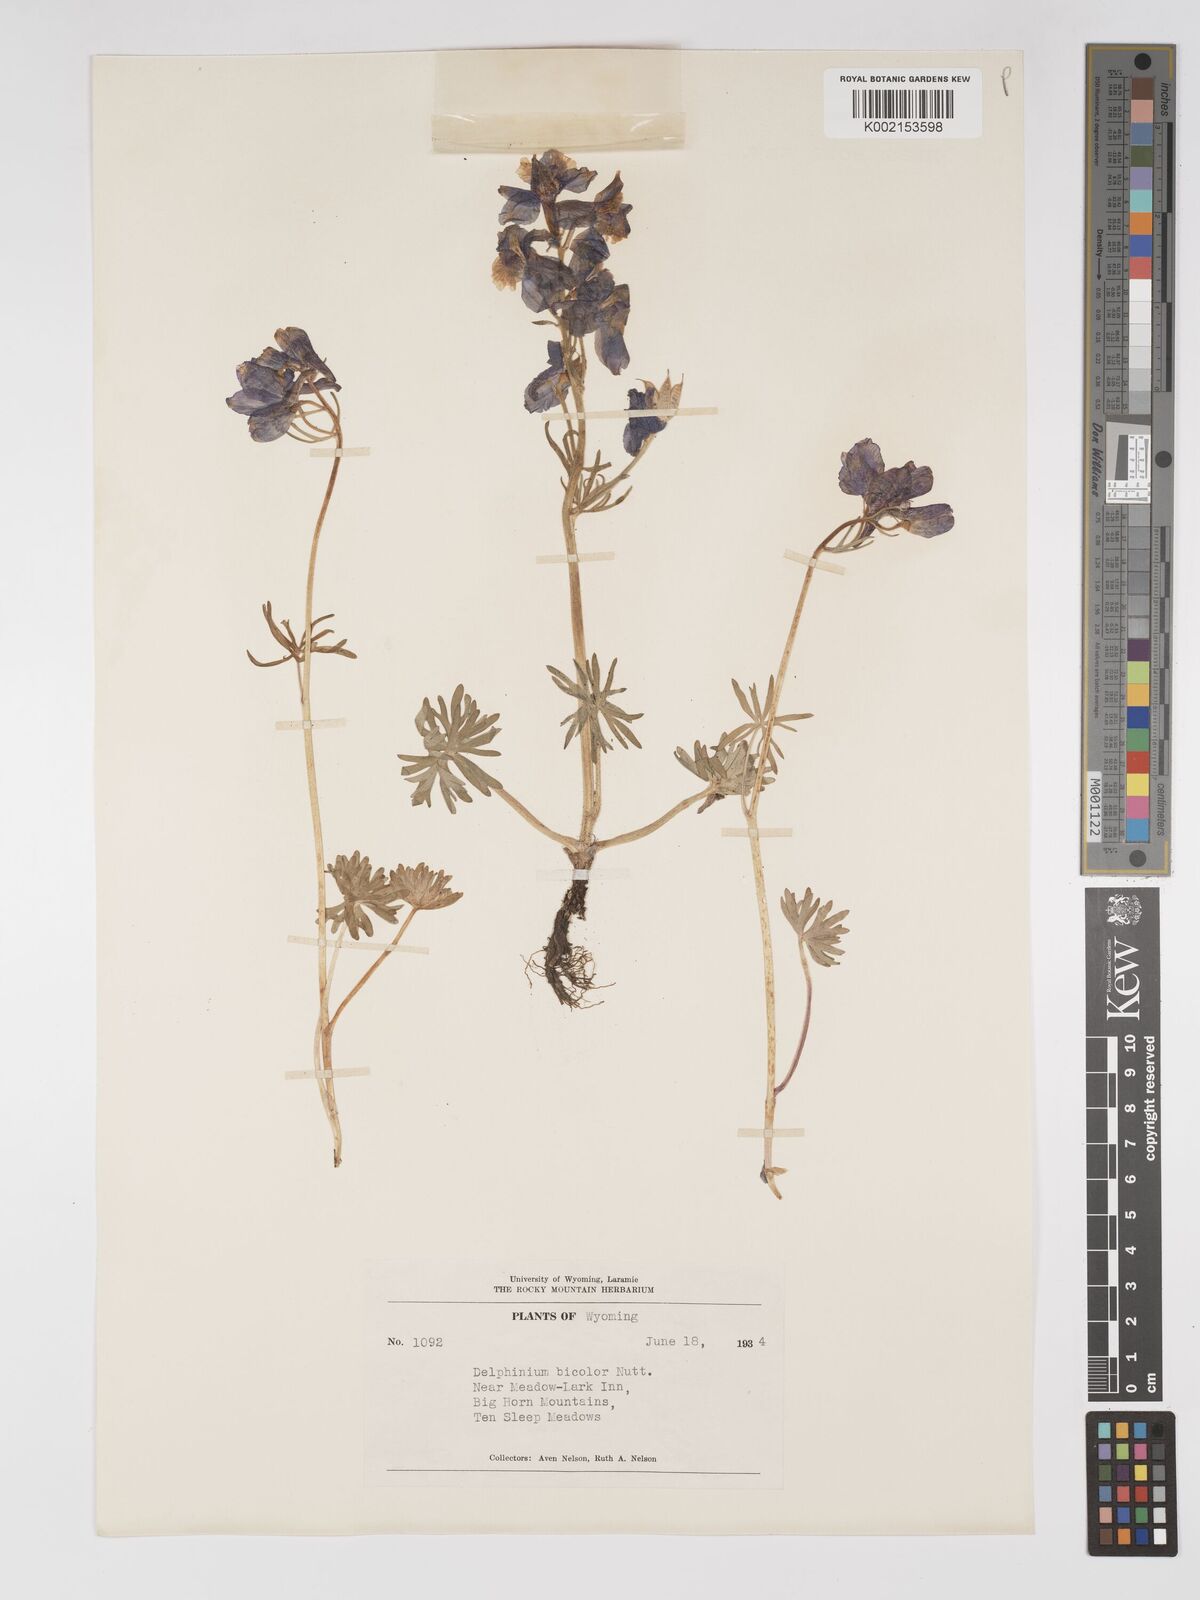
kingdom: Plantae
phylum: Tracheophyta
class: Magnoliopsida
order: Ranunculales
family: Ranunculaceae
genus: Delphinium
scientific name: Delphinium bicolor
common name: Low larkspur
